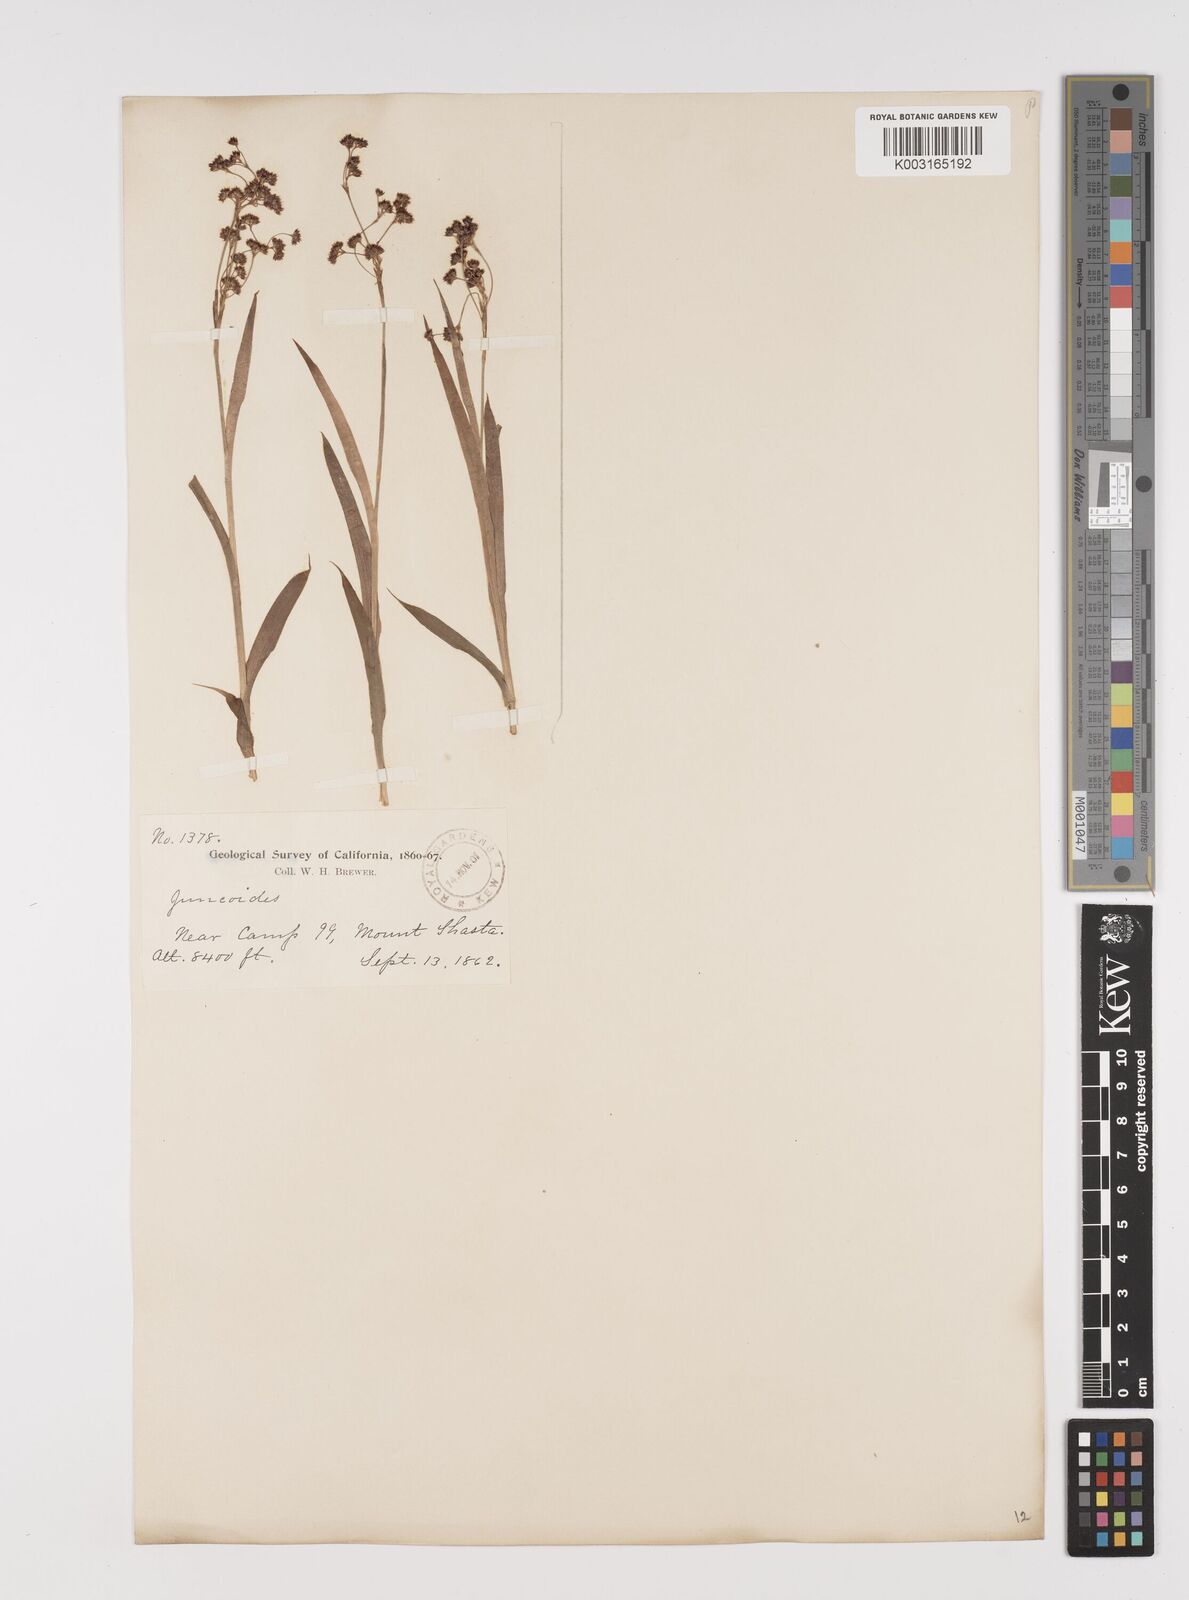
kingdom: Plantae
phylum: Tracheophyta
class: Liliopsida
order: Poales
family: Juncaceae
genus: Luzula
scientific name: Luzula
